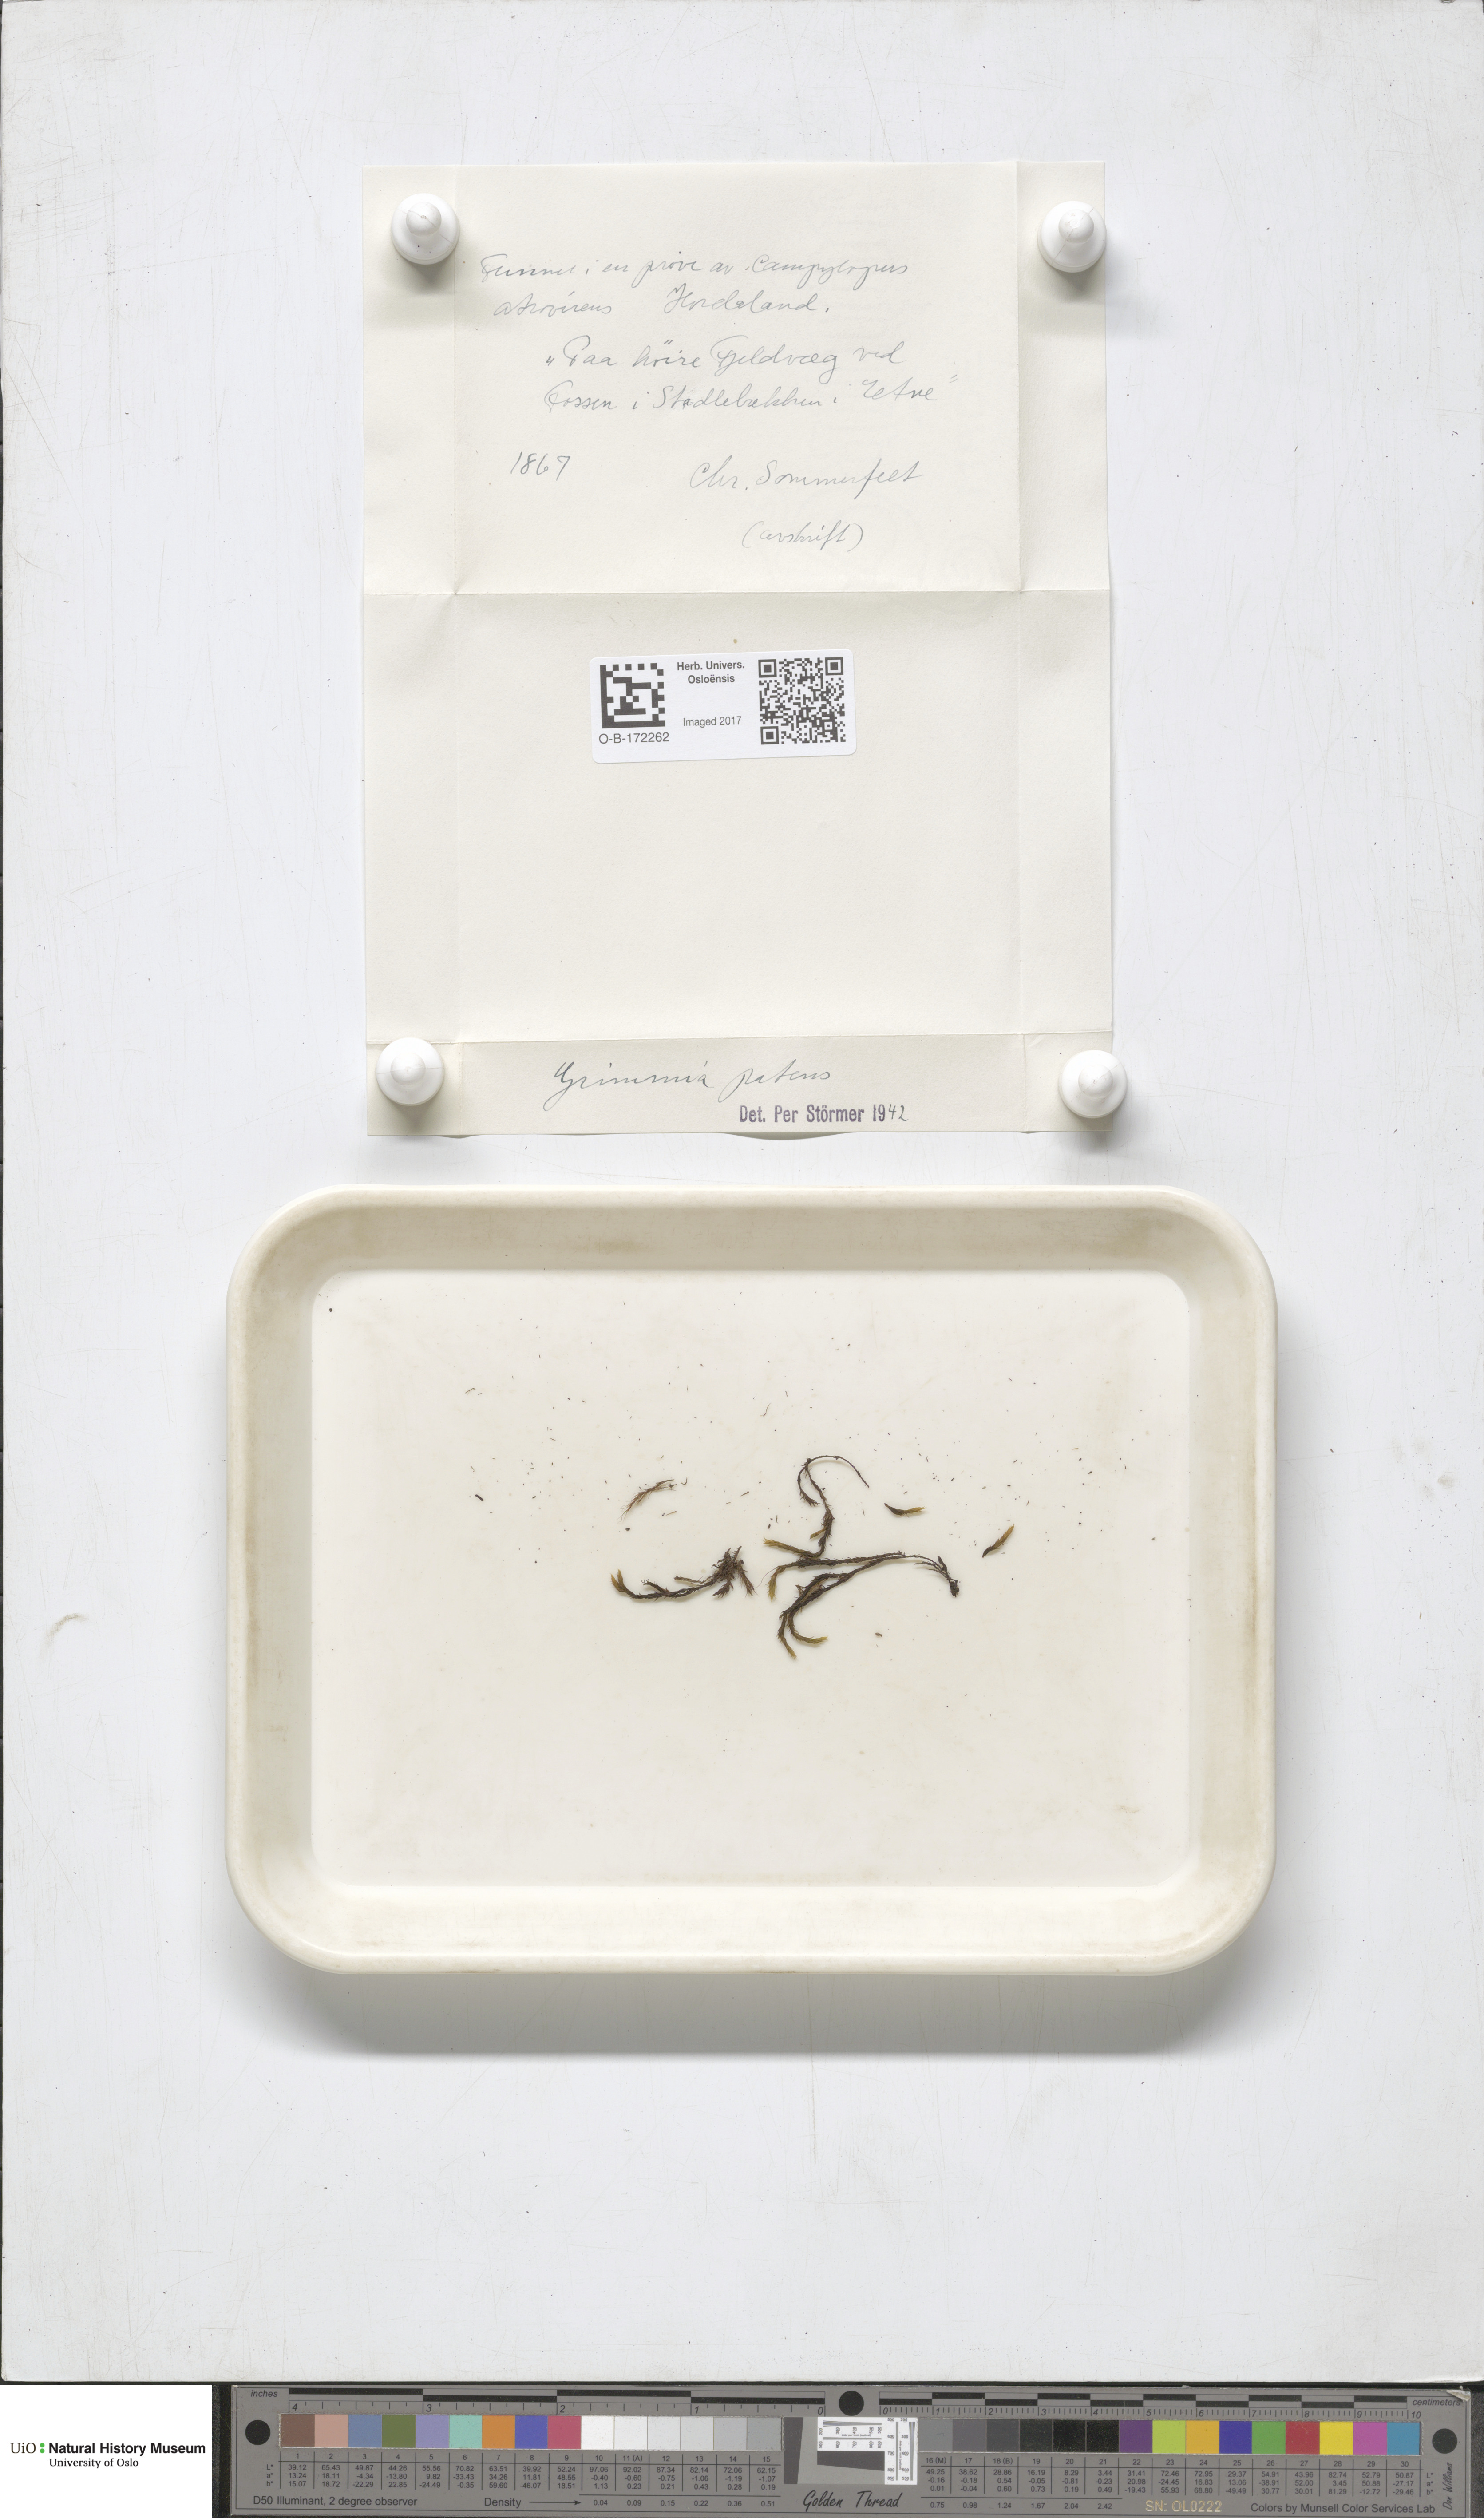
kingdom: Plantae
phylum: Bryophyta
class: Bryopsida
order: Grimmiales
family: Grimmiaceae
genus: Grimmia
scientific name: Grimmia ramondii
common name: Spreading-leaved grimmia
